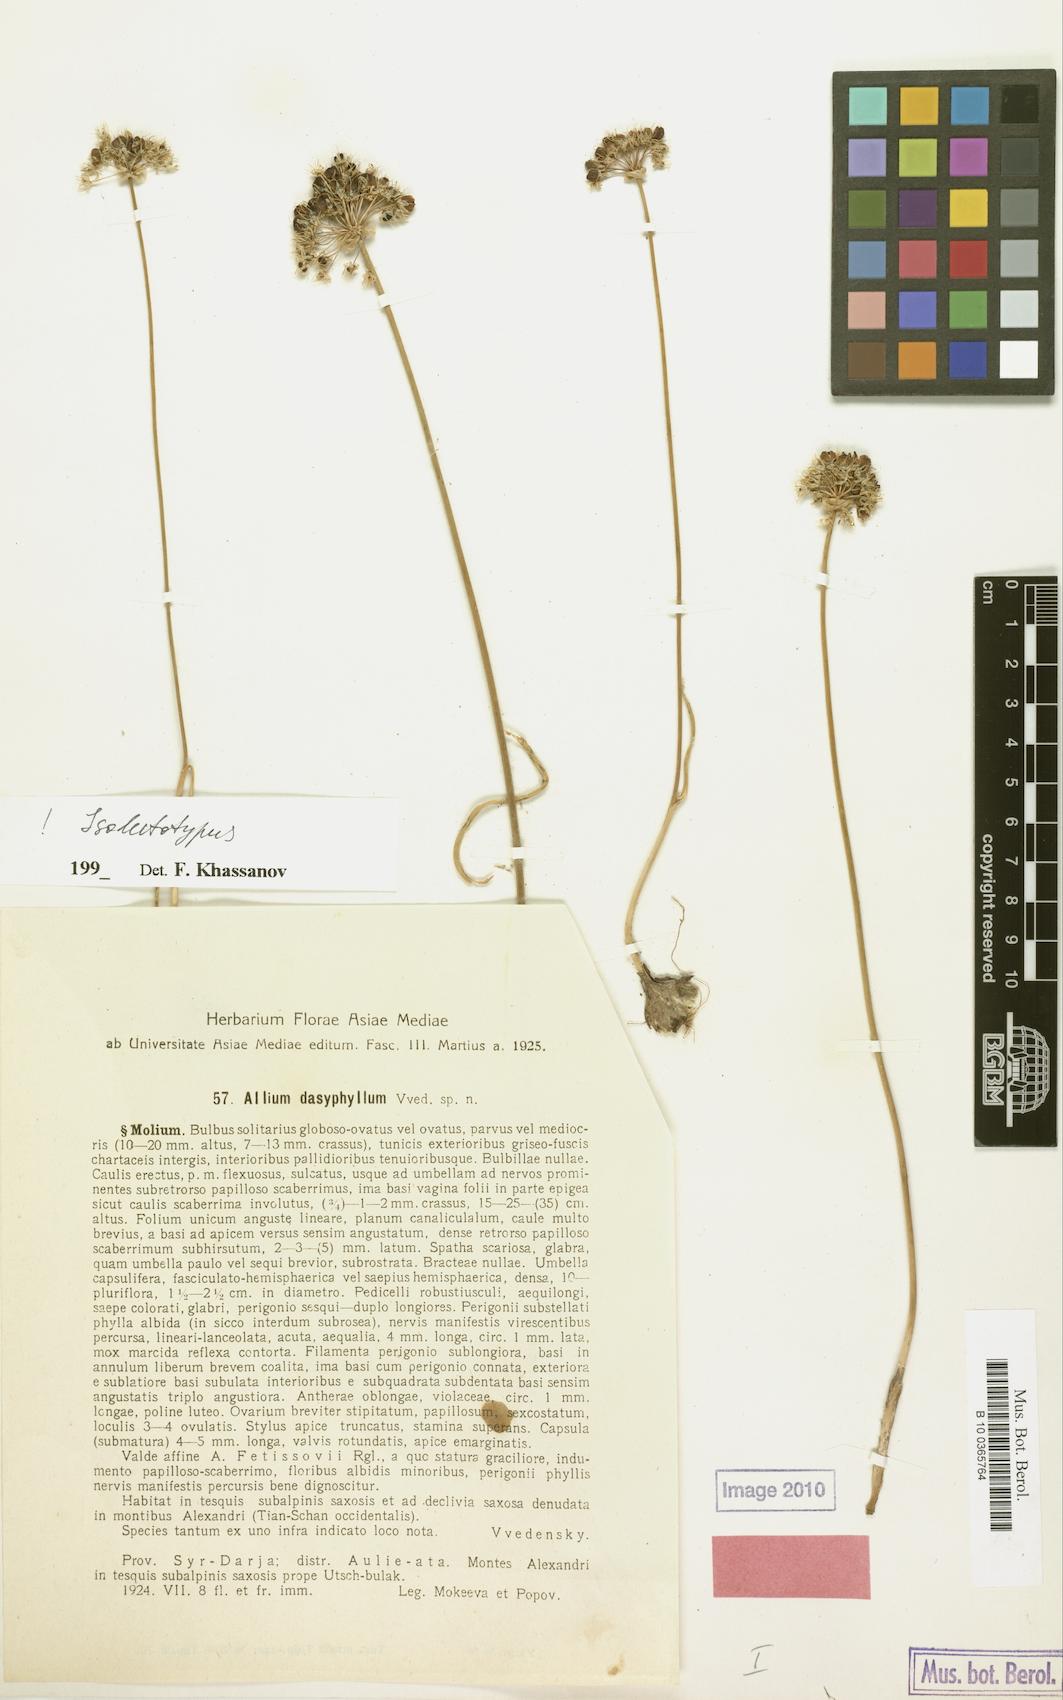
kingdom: Plantae
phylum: Tracheophyta
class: Liliopsida
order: Asparagales
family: Amaryllidaceae
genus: Allium
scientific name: Allium dasyphyllum
